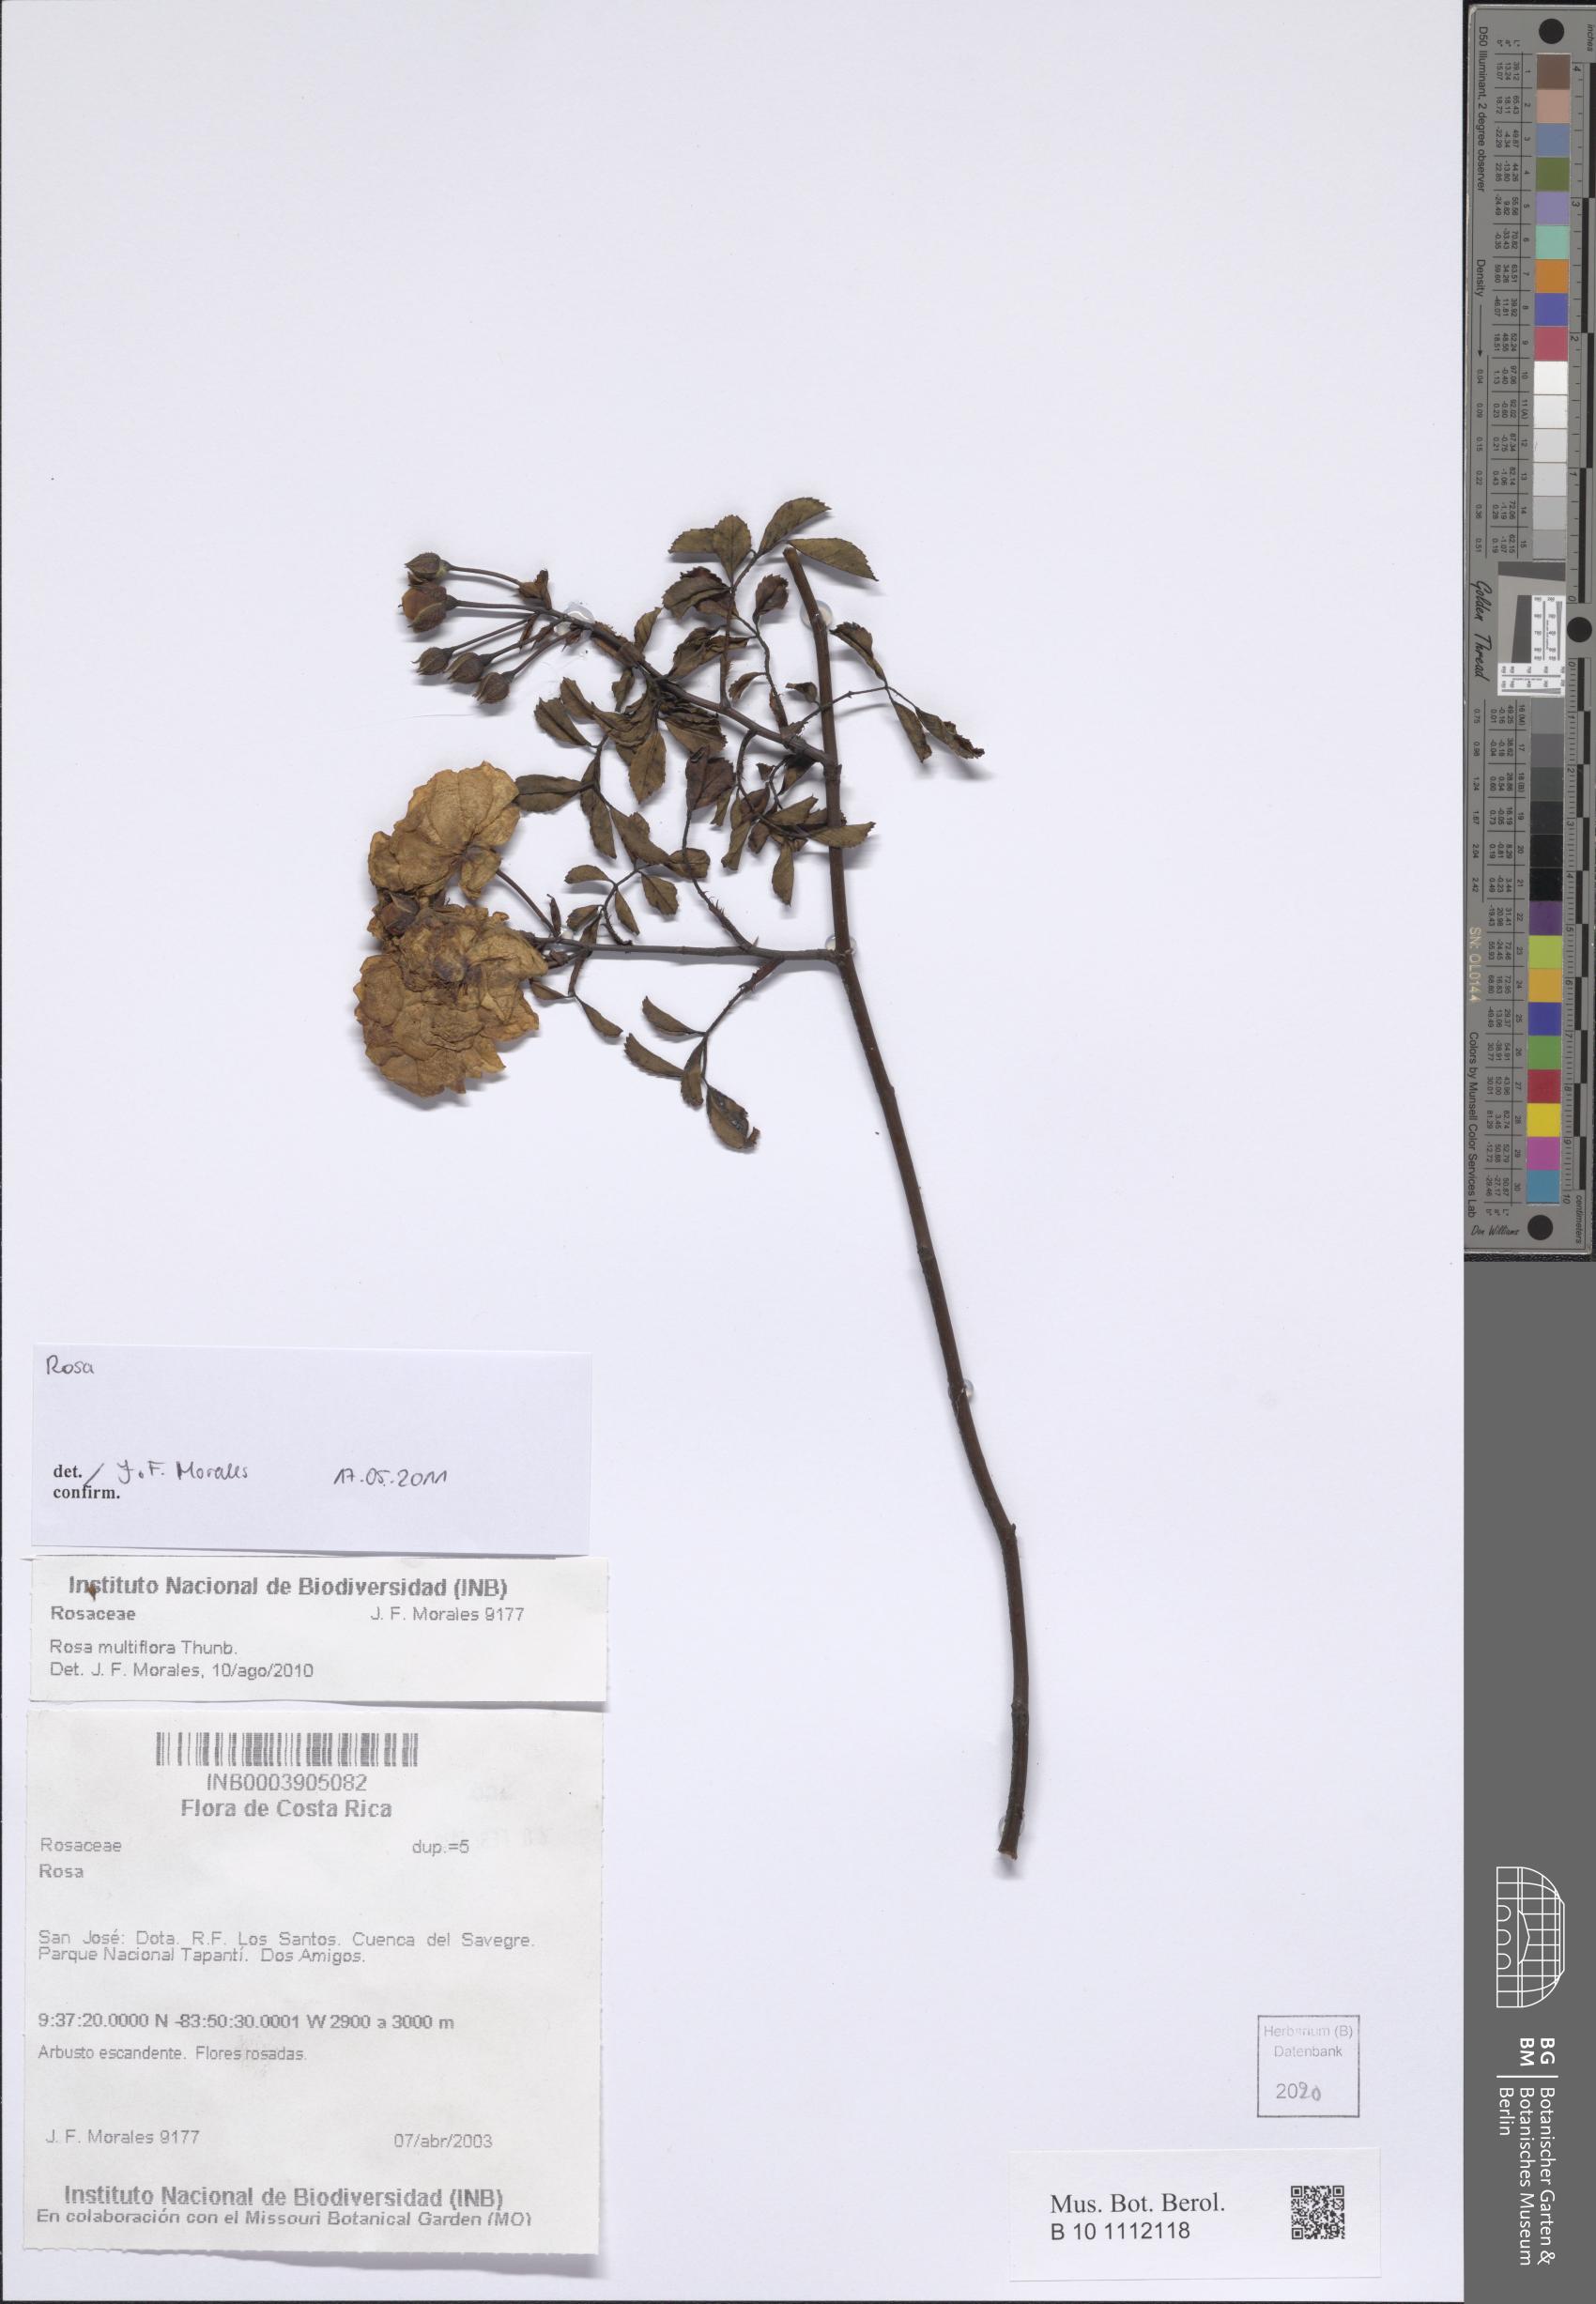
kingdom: Plantae
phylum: Tracheophyta
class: Magnoliopsida
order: Rosales
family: Rosaceae
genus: Rosa
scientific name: Rosa
